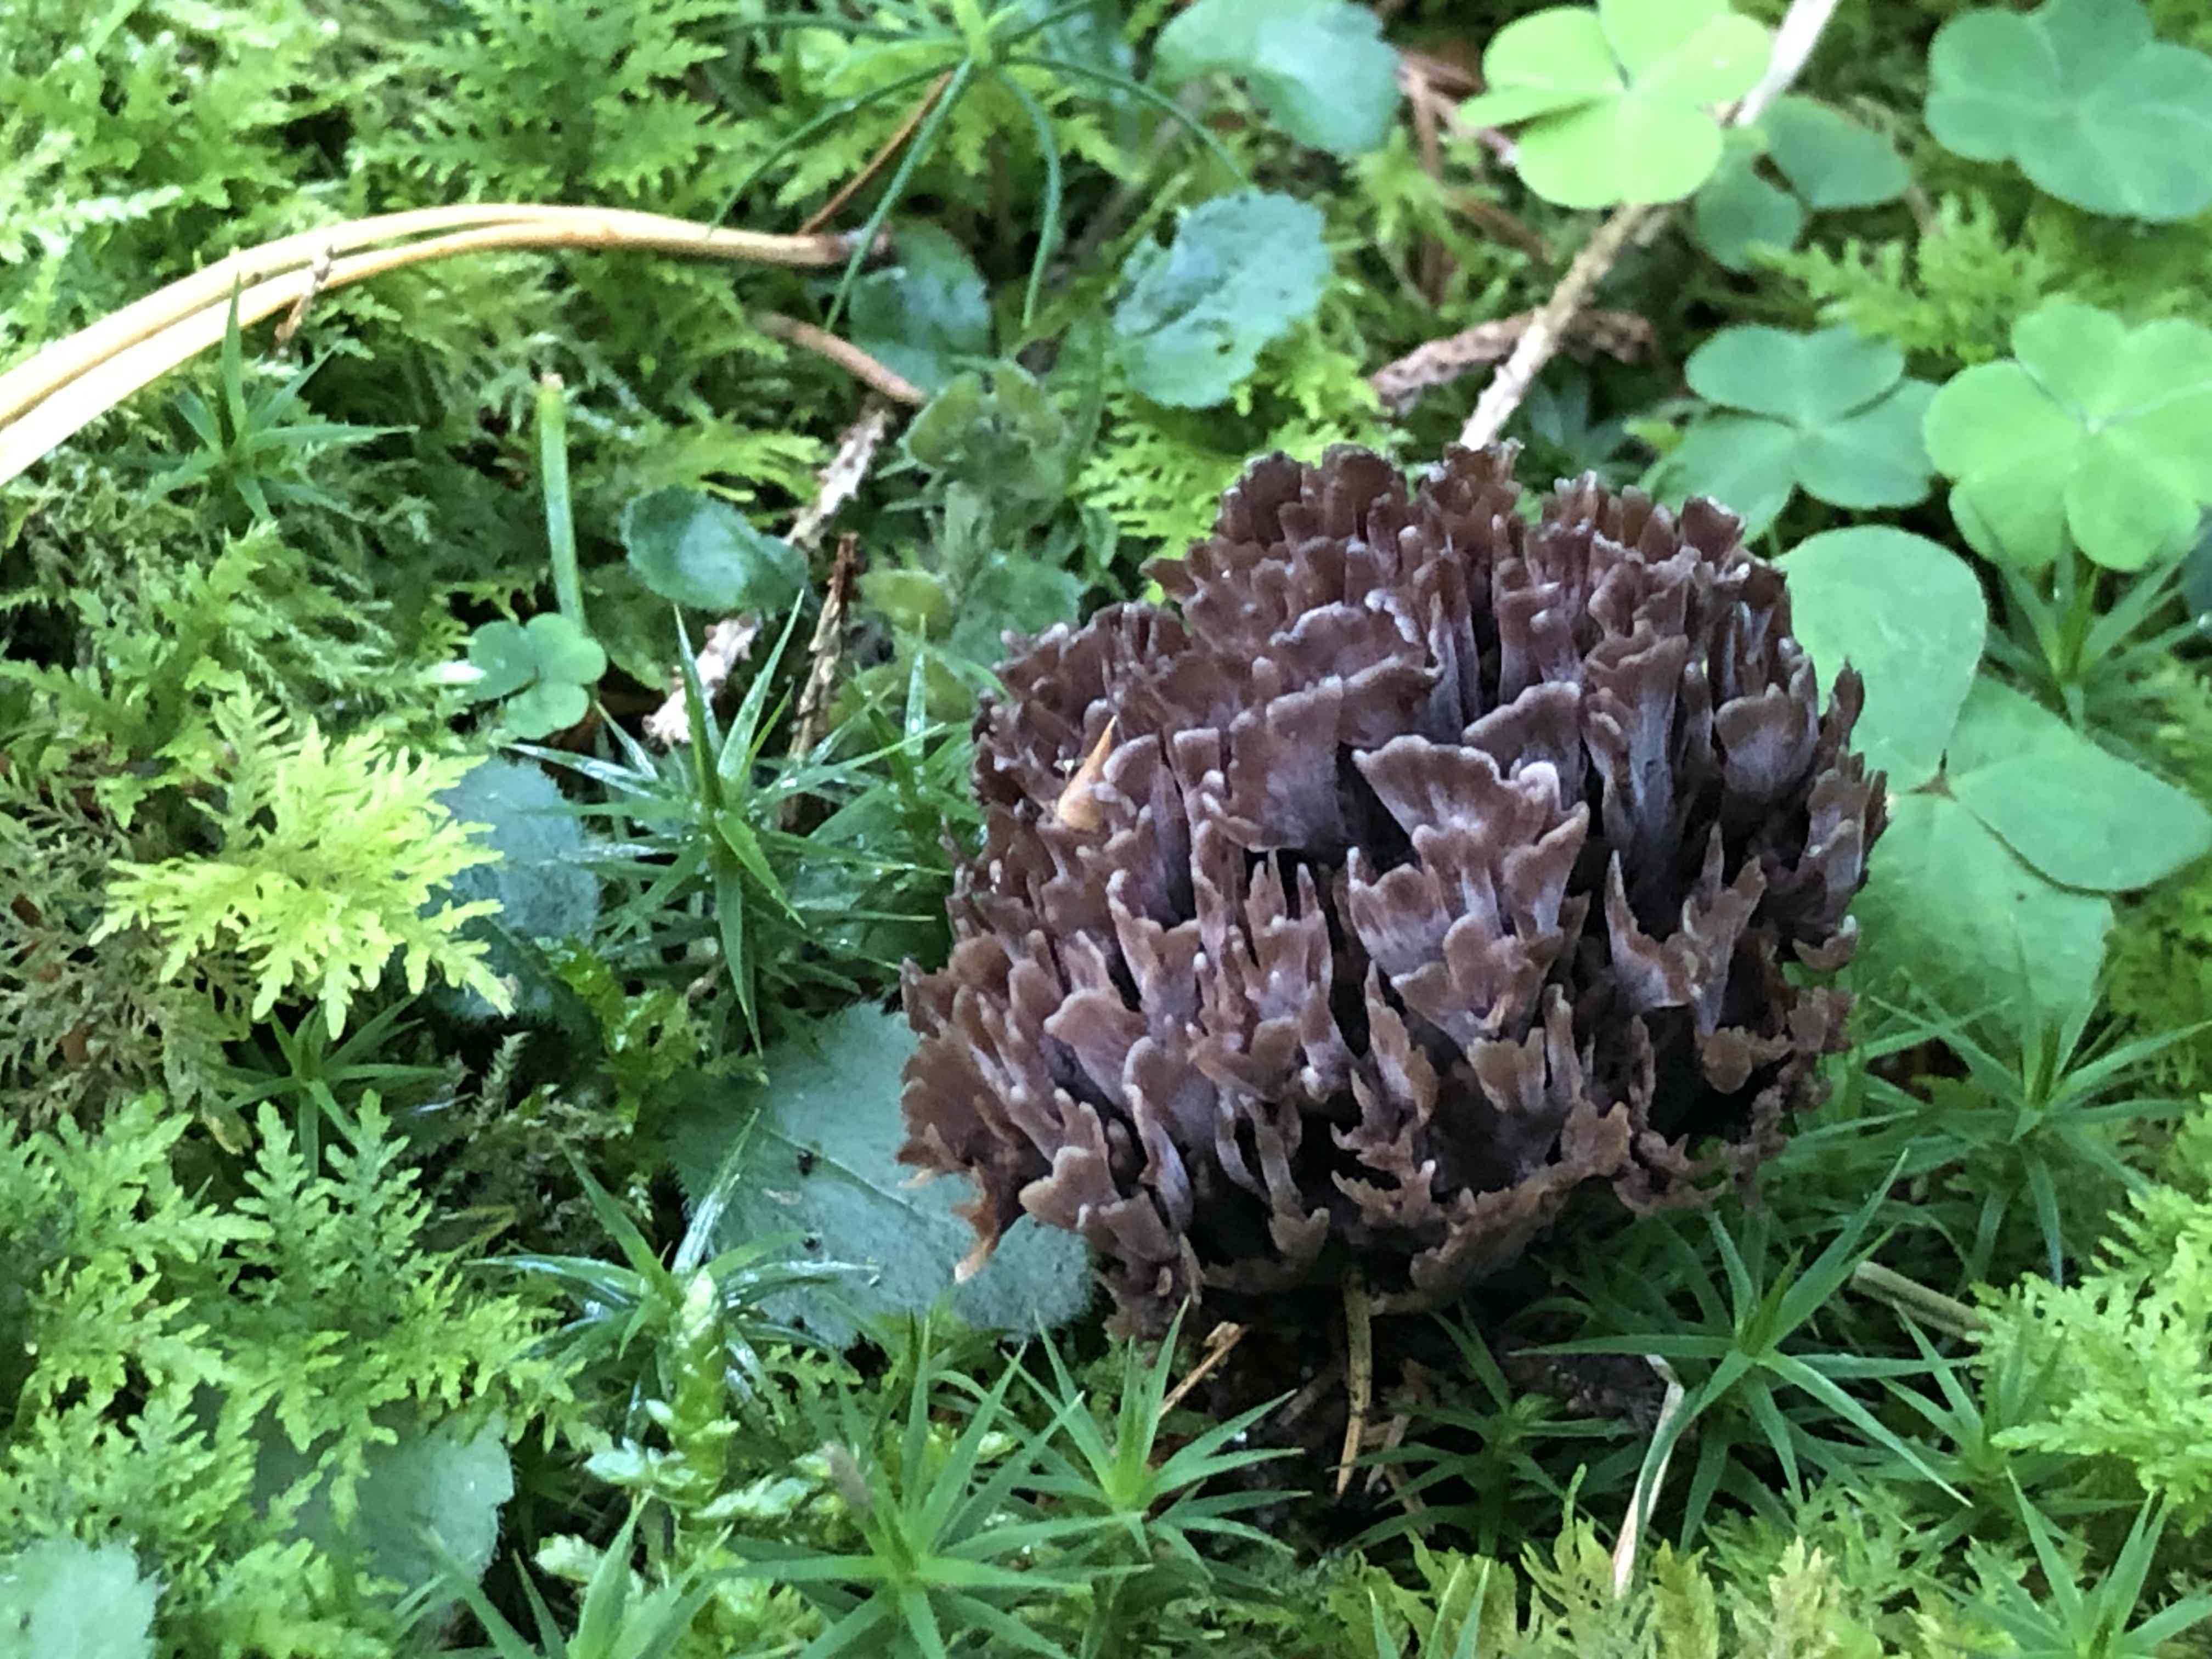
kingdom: Fungi
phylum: Basidiomycota
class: Agaricomycetes
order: Thelephorales
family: Thelephoraceae
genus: Thelephora
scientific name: Thelephora palmata
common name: grenet frynsesvamp
